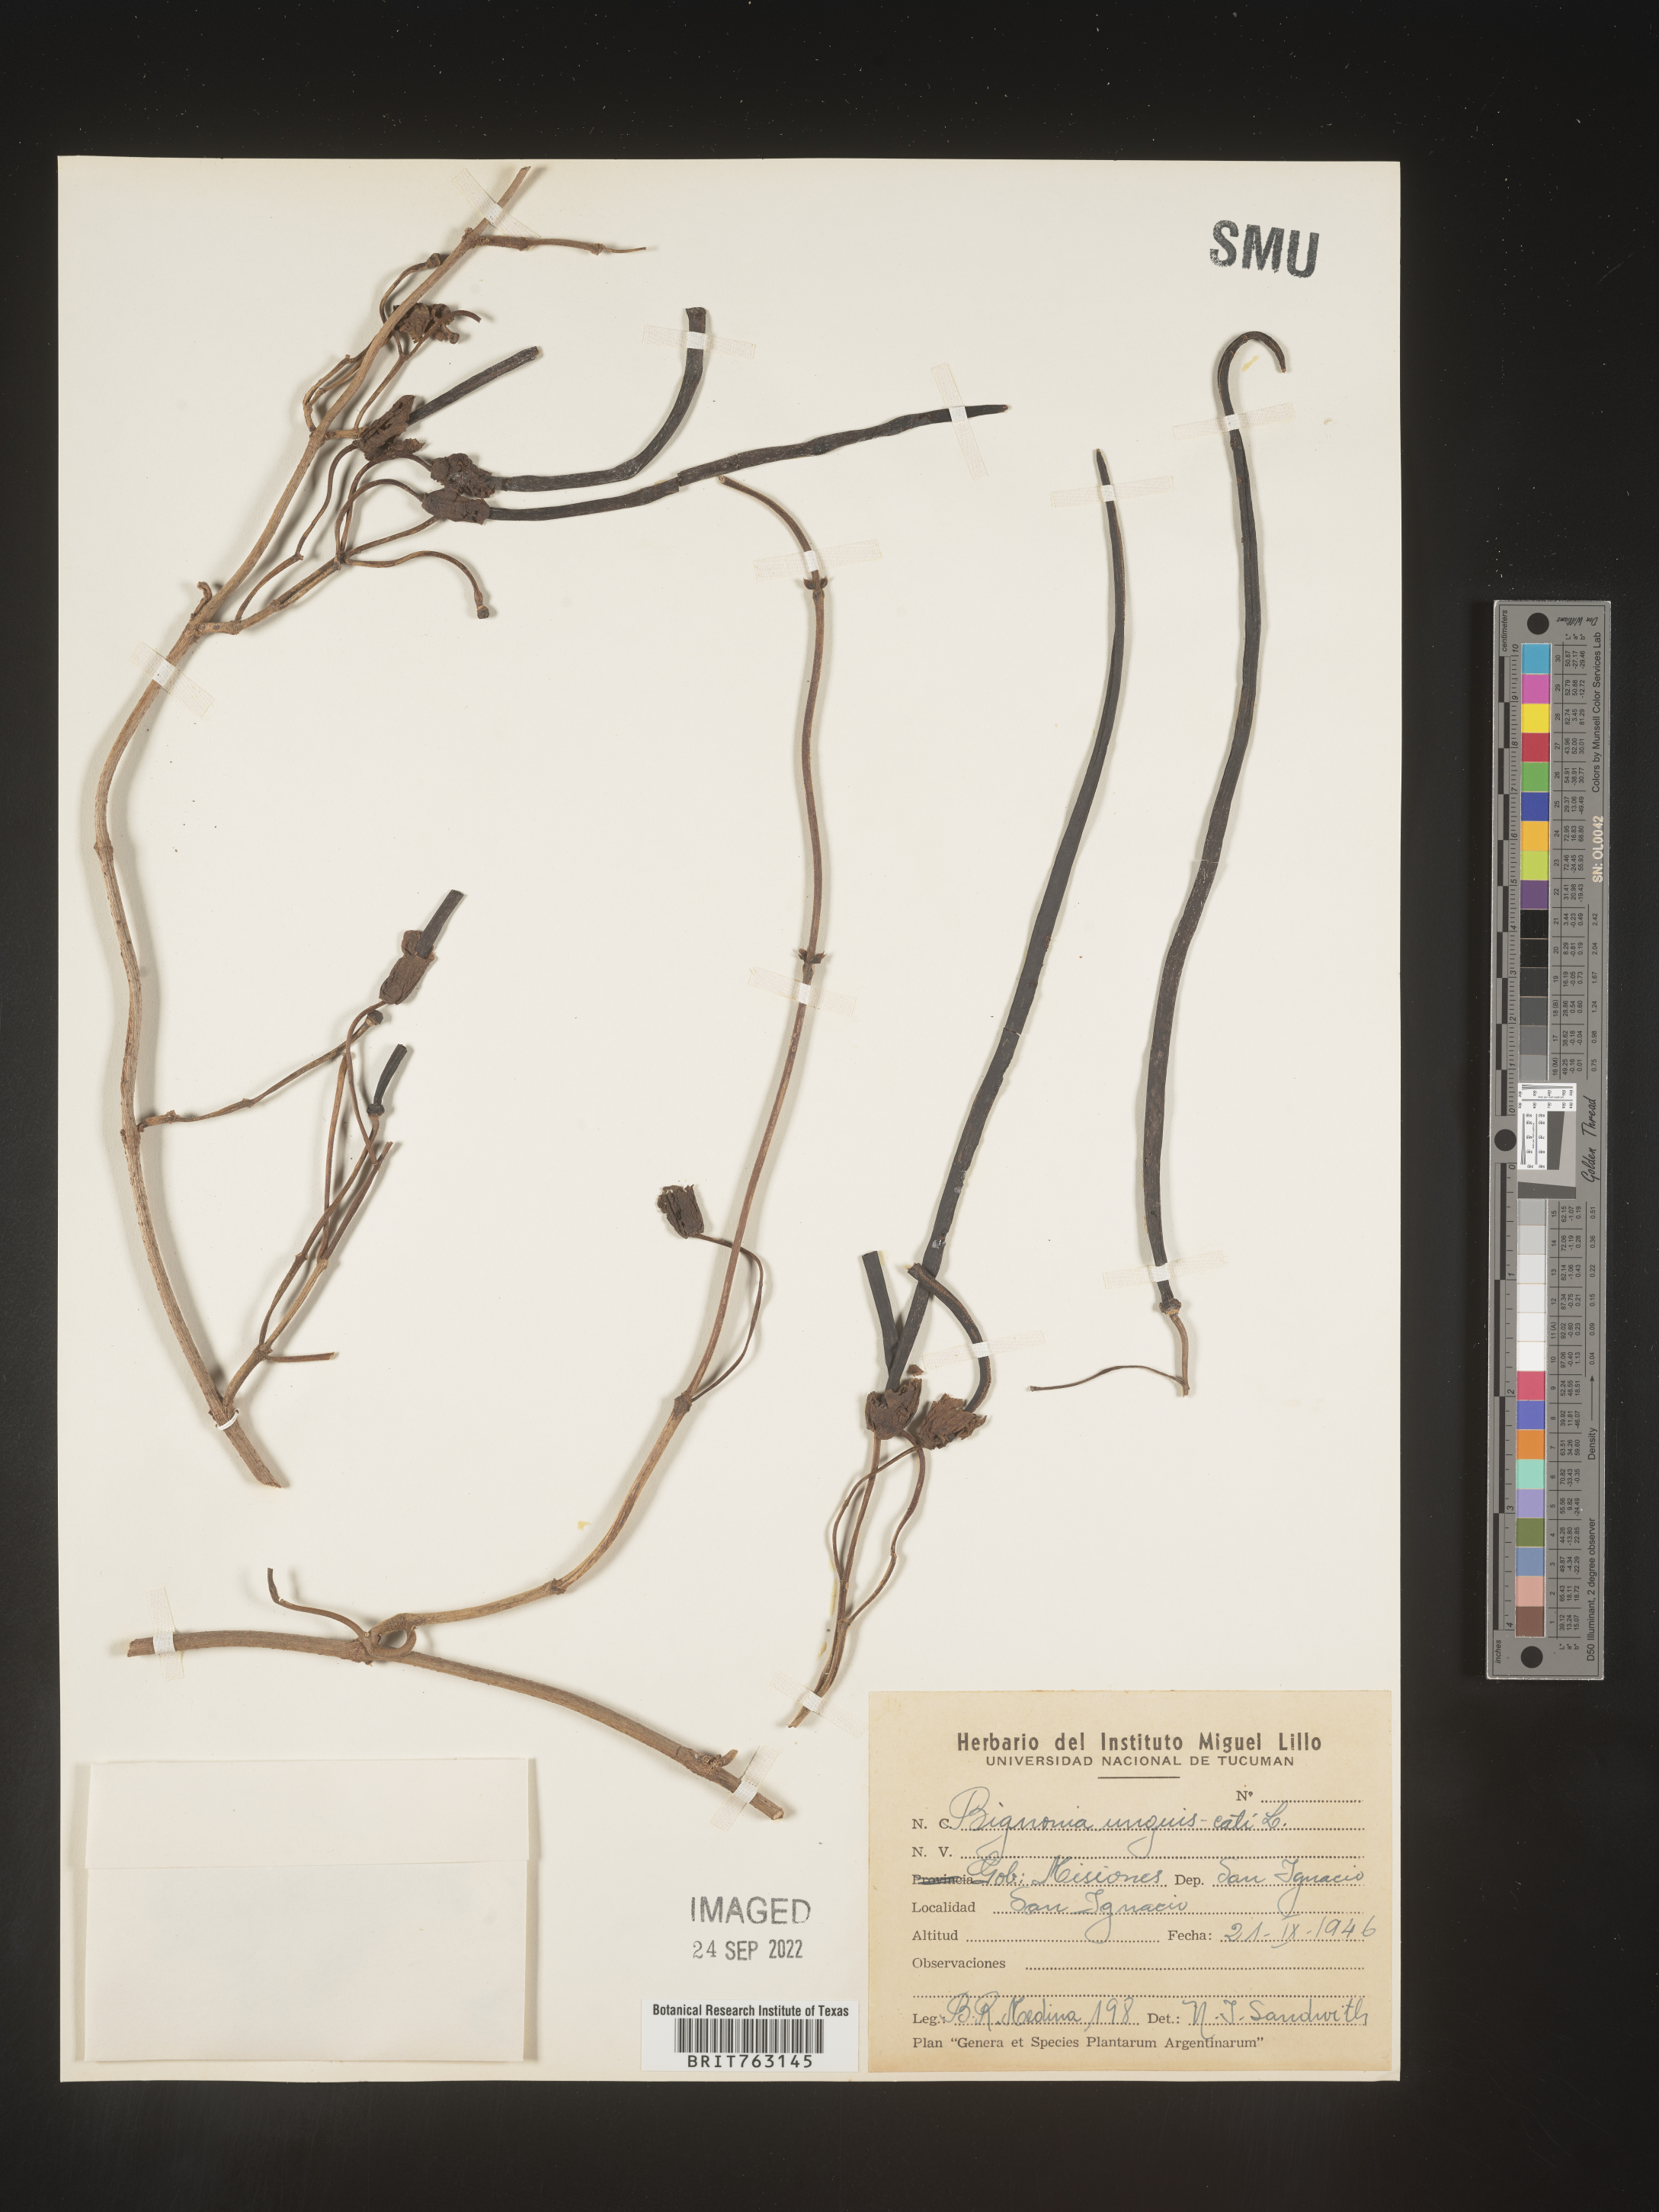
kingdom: Plantae
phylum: Tracheophyta
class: Magnoliopsida
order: Lamiales
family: Bignoniaceae
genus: Bignonia
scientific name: Bignonia
